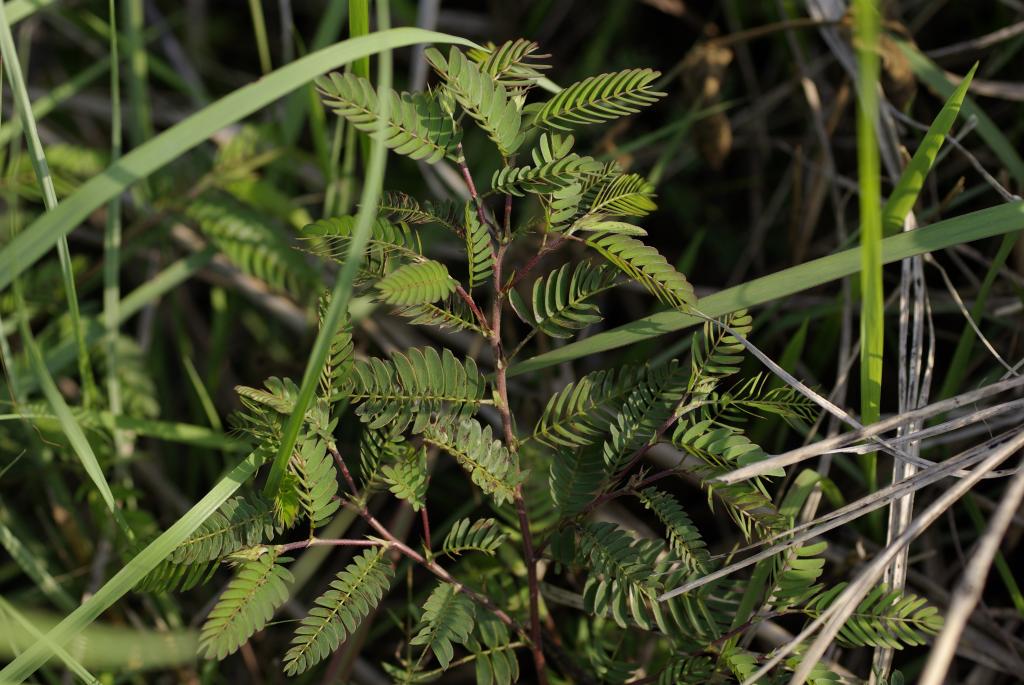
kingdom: Plantae
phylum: Tracheophyta
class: Magnoliopsida
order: Fabales
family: Fabaceae
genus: Chamaecrista
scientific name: Chamaecrista nictitans
